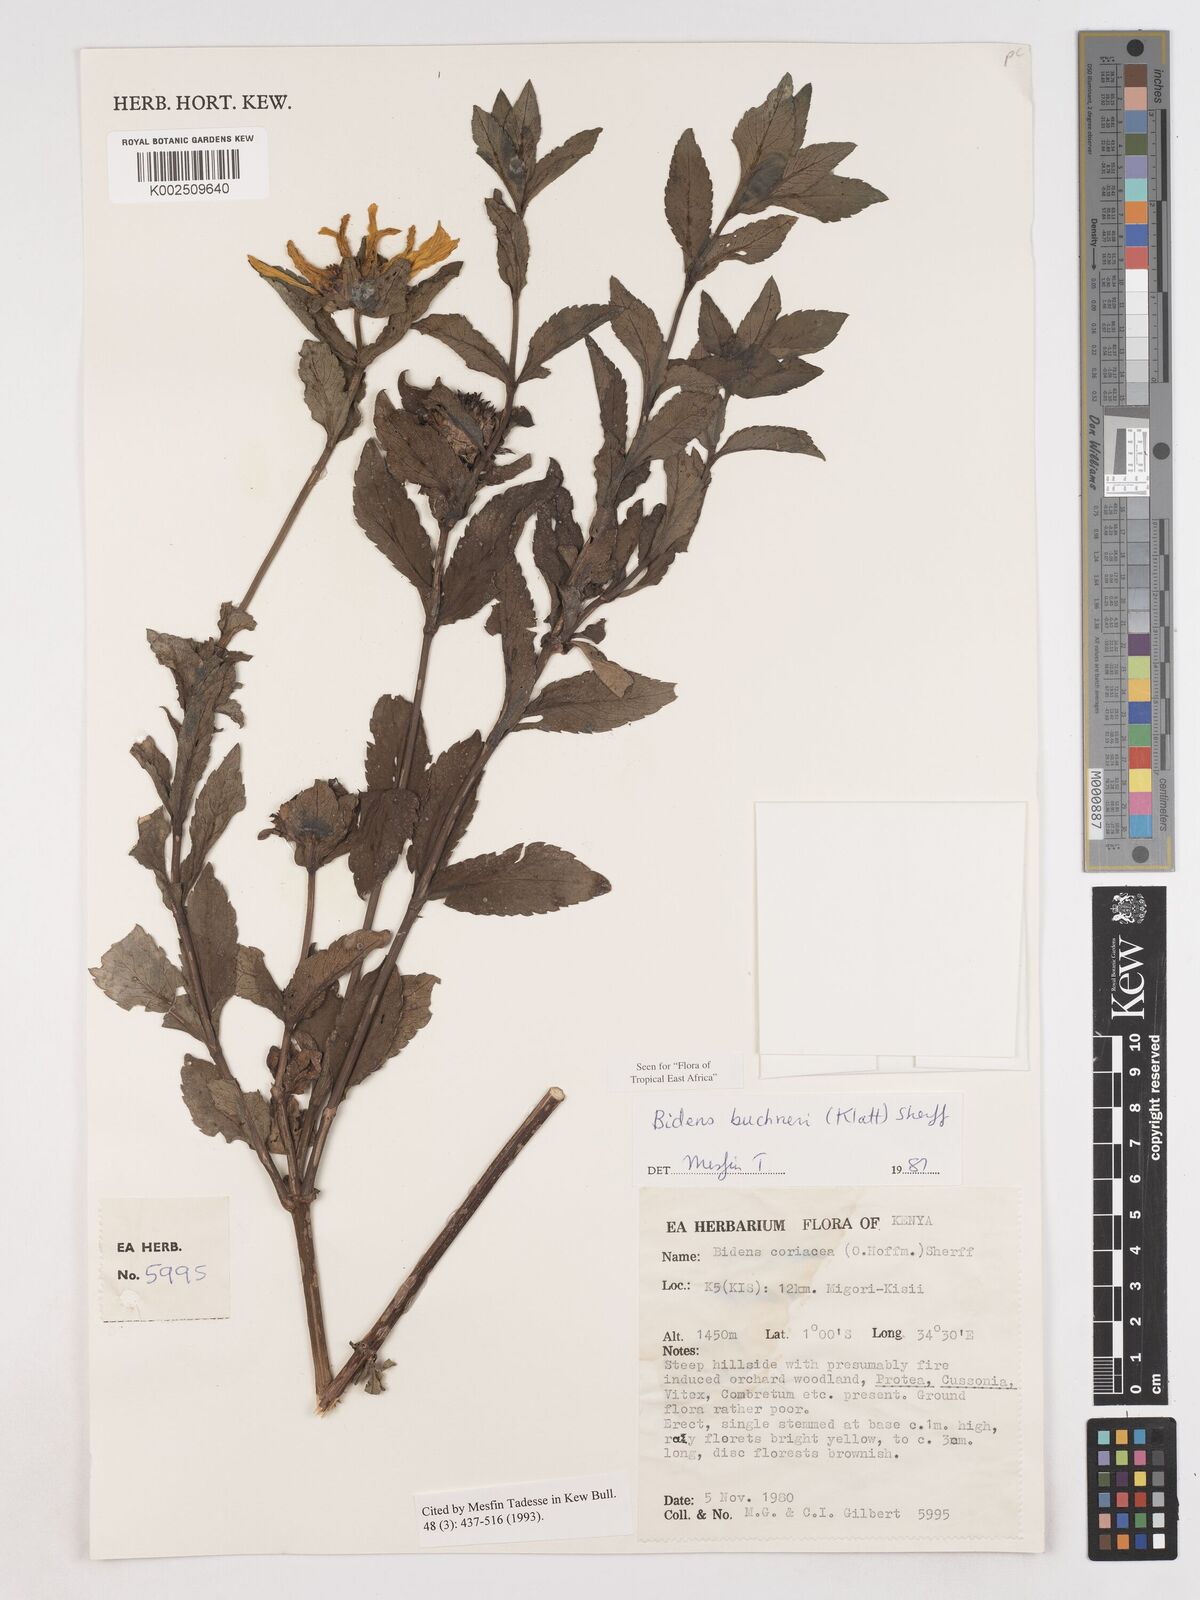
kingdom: Plantae
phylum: Tracheophyta
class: Magnoliopsida
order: Asterales
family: Asteraceae
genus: Bidens
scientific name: Bidens buchneri
